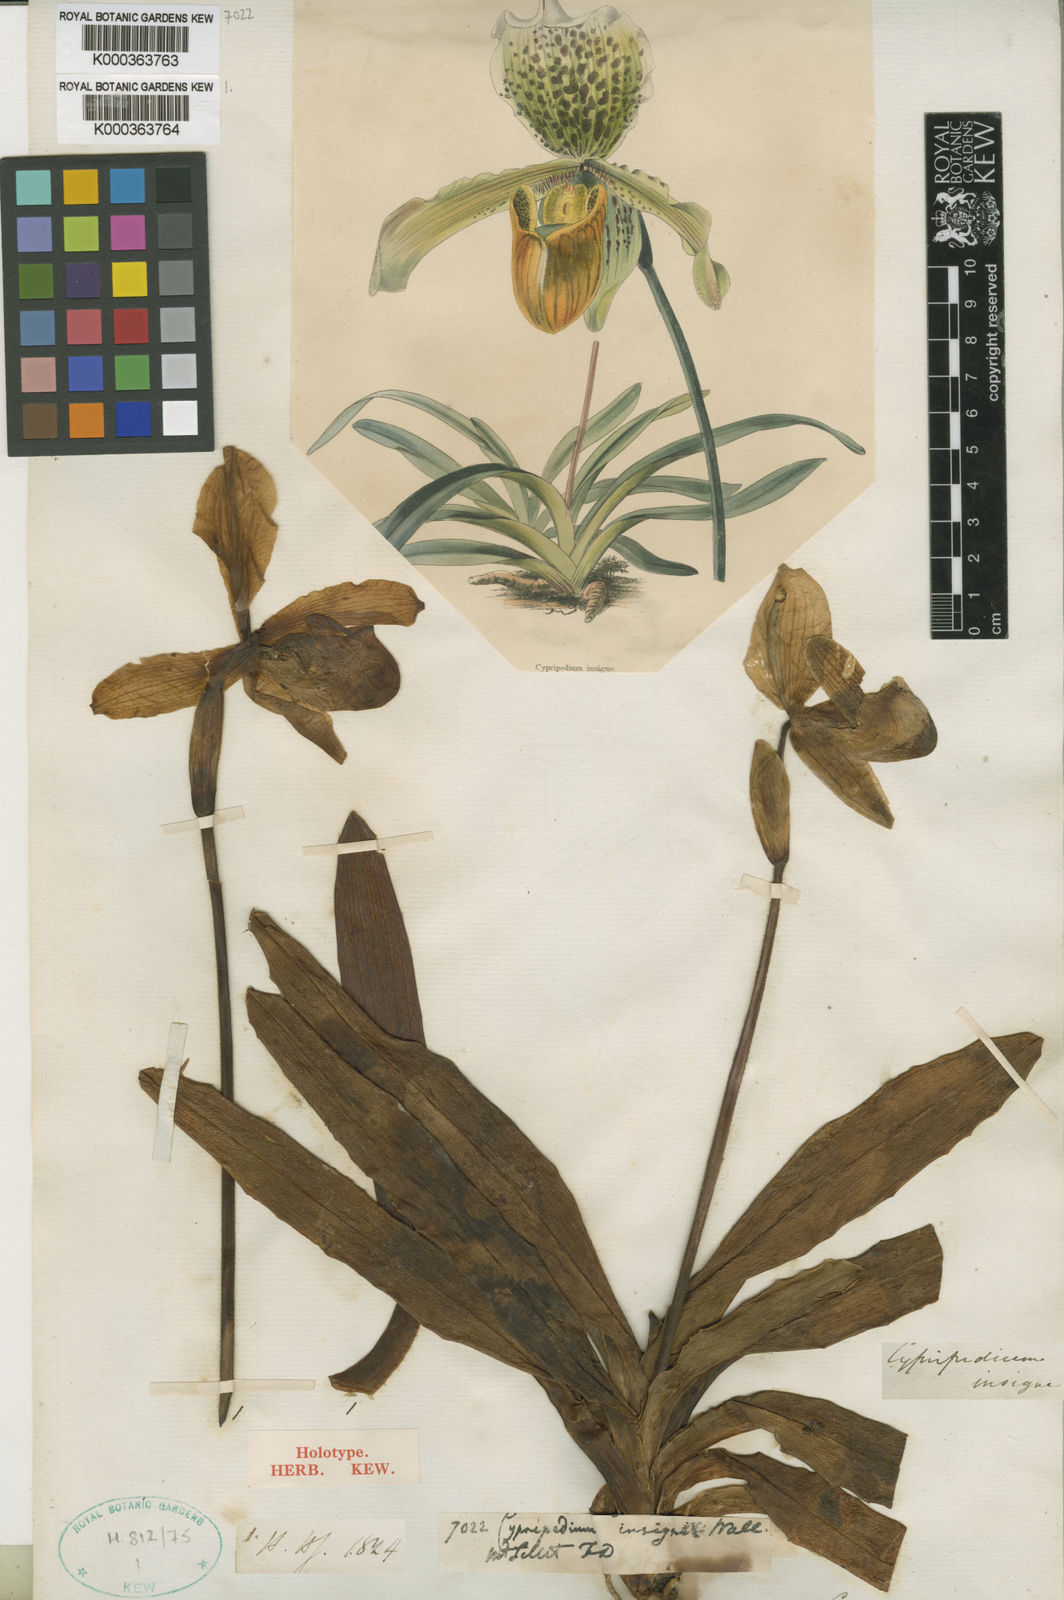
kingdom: Plantae
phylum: Tracheophyta
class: Liliopsida
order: Asparagales
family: Orchidaceae
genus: Paphiopedilum
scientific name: Paphiopedilum insigne
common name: Splendid paphiopedilum
